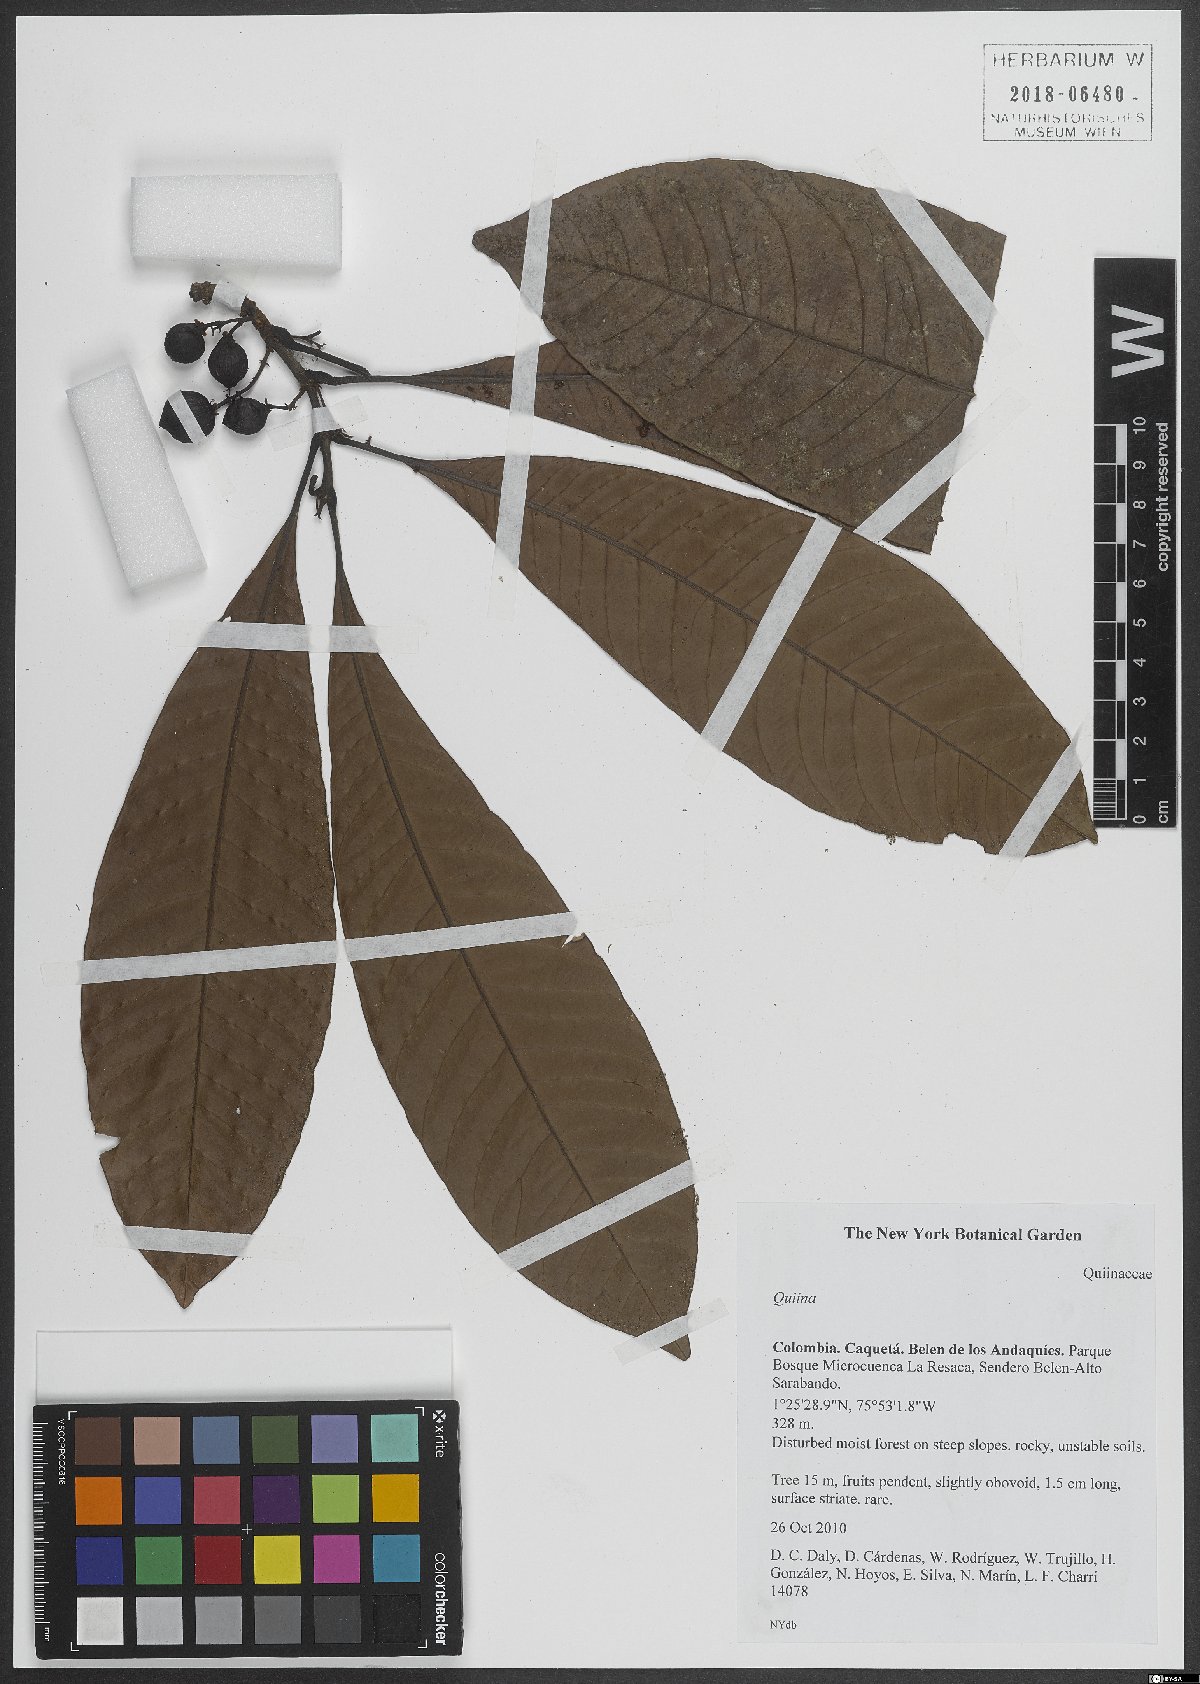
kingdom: Plantae
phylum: Tracheophyta
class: Magnoliopsida
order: Malpighiales
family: Quiinaceae
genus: Quiina
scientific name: Quiina
